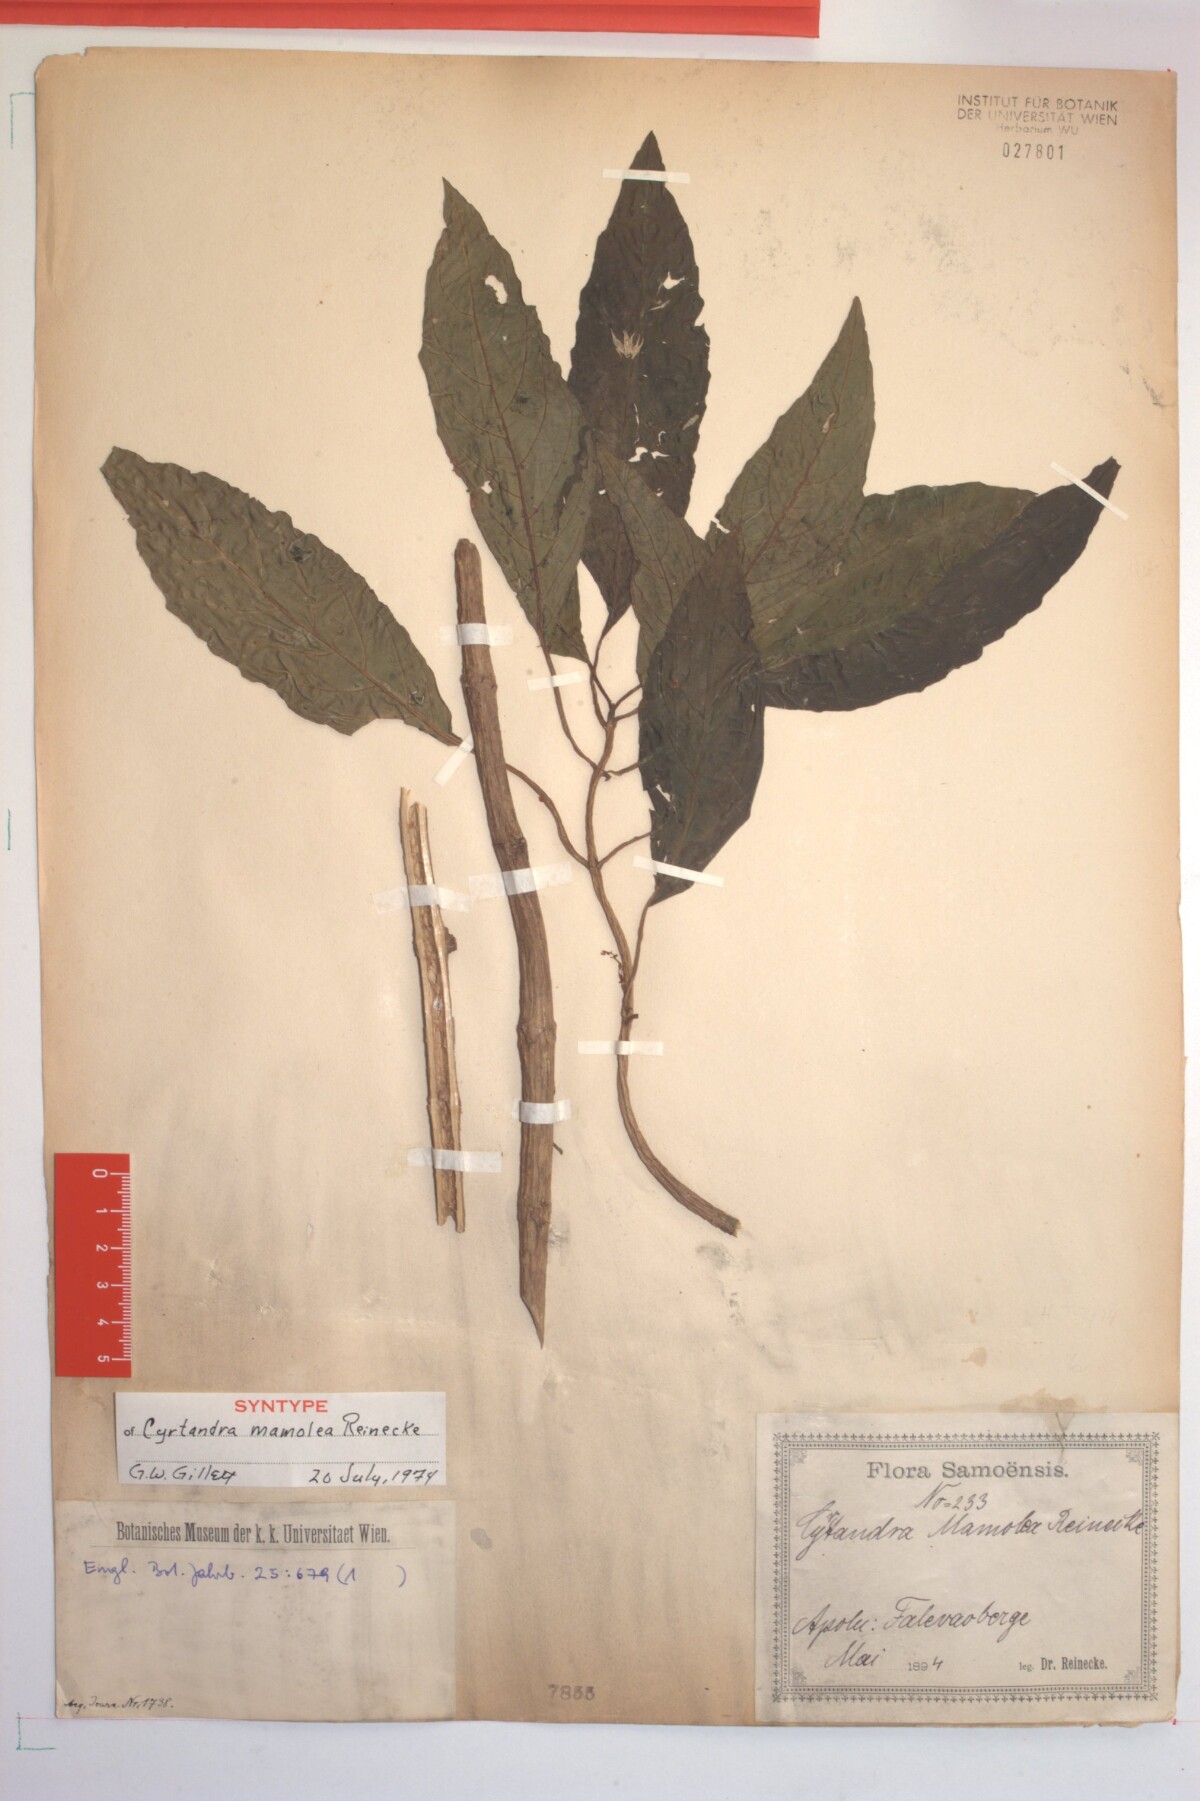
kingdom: Plantae
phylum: Tracheophyta
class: Magnoliopsida
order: Lamiales
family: Gesneriaceae
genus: Cyrtandra
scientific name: Cyrtandra mamolea
